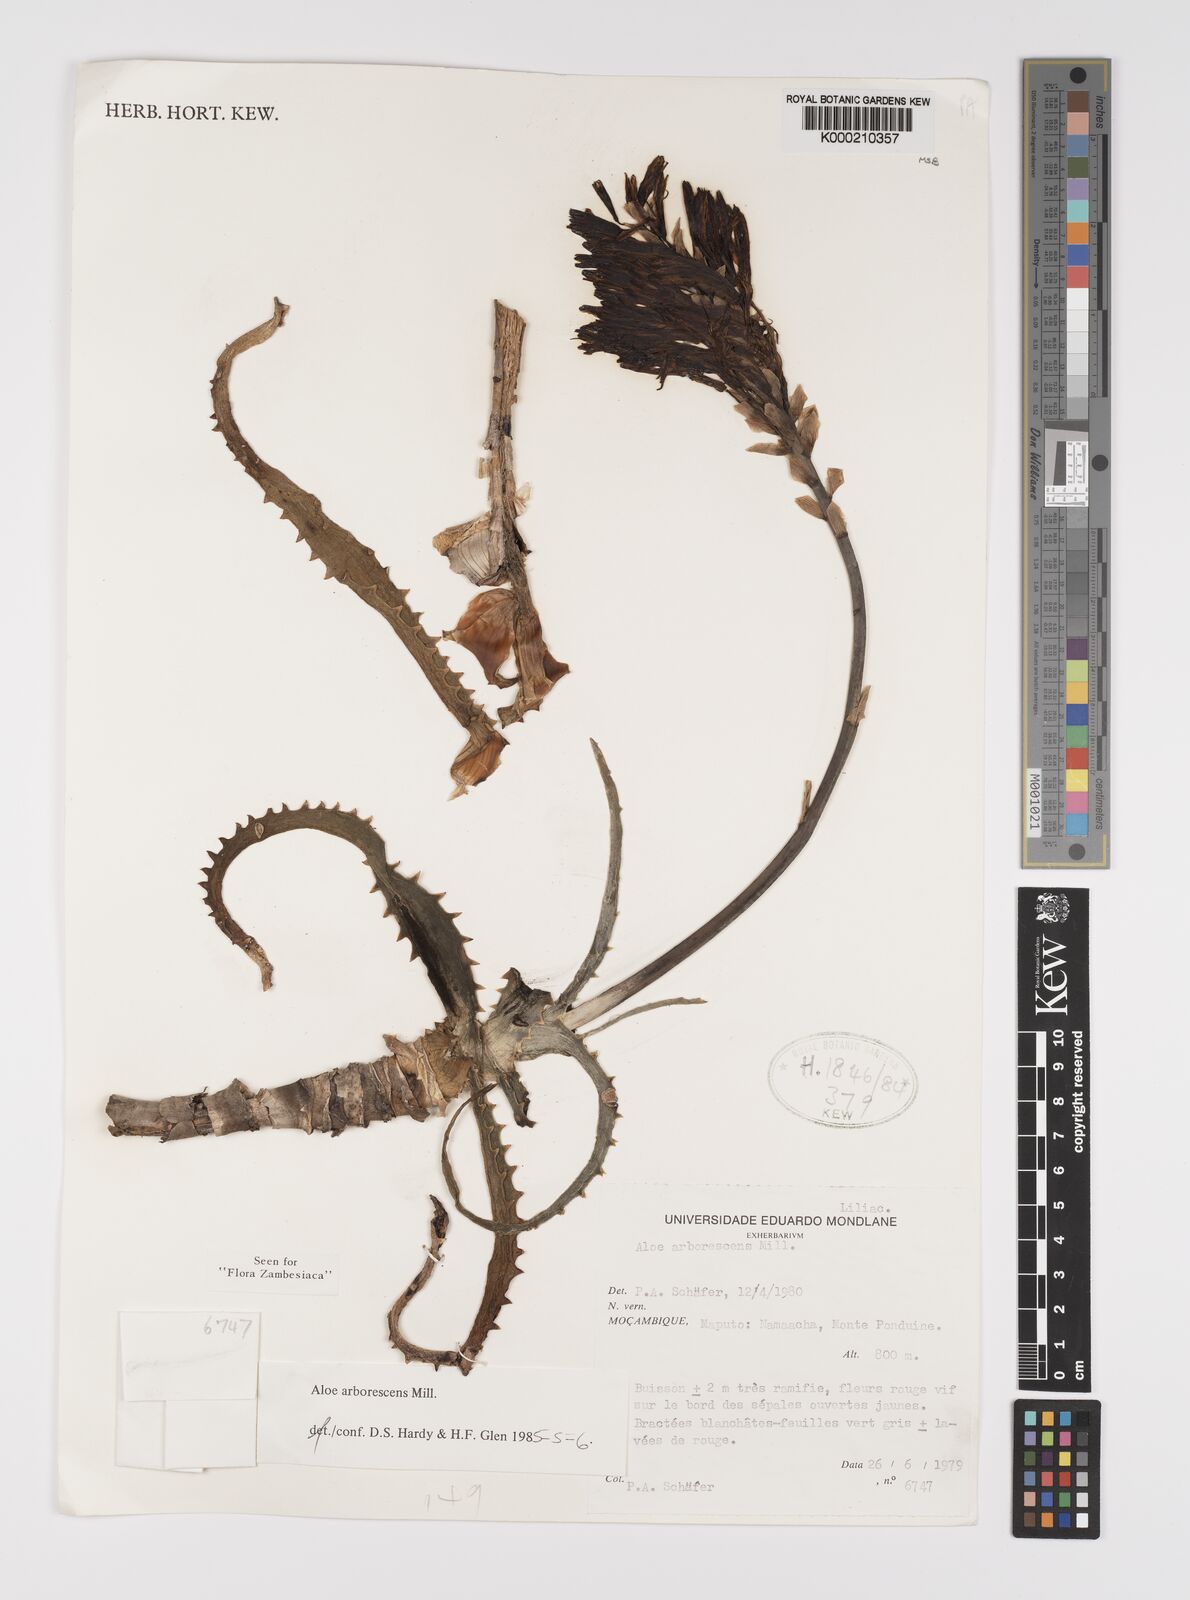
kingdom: Plantae
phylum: Tracheophyta
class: Liliopsida
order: Asparagales
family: Asphodelaceae
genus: Aloe
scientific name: Aloe arborescens
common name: Candelabra aloe
